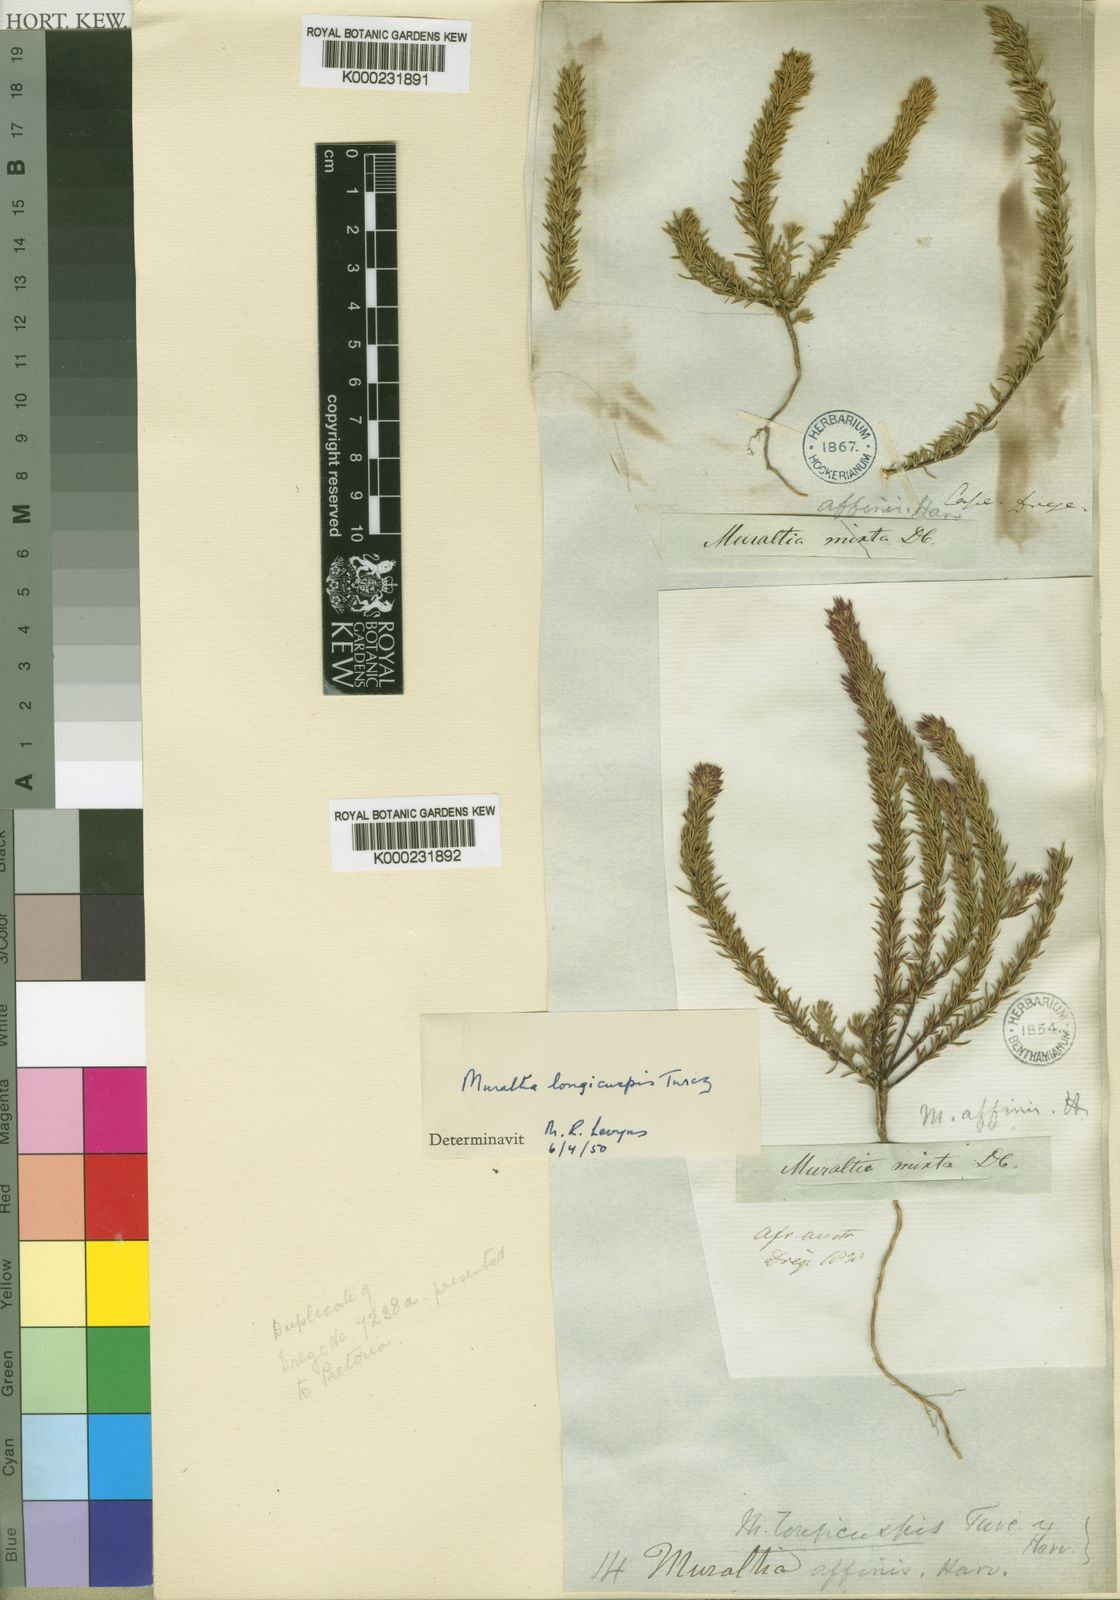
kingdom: Plantae
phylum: Tracheophyta
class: Magnoliopsida
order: Fabales
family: Polygalaceae
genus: Muraltia
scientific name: Muraltia longicuspis
